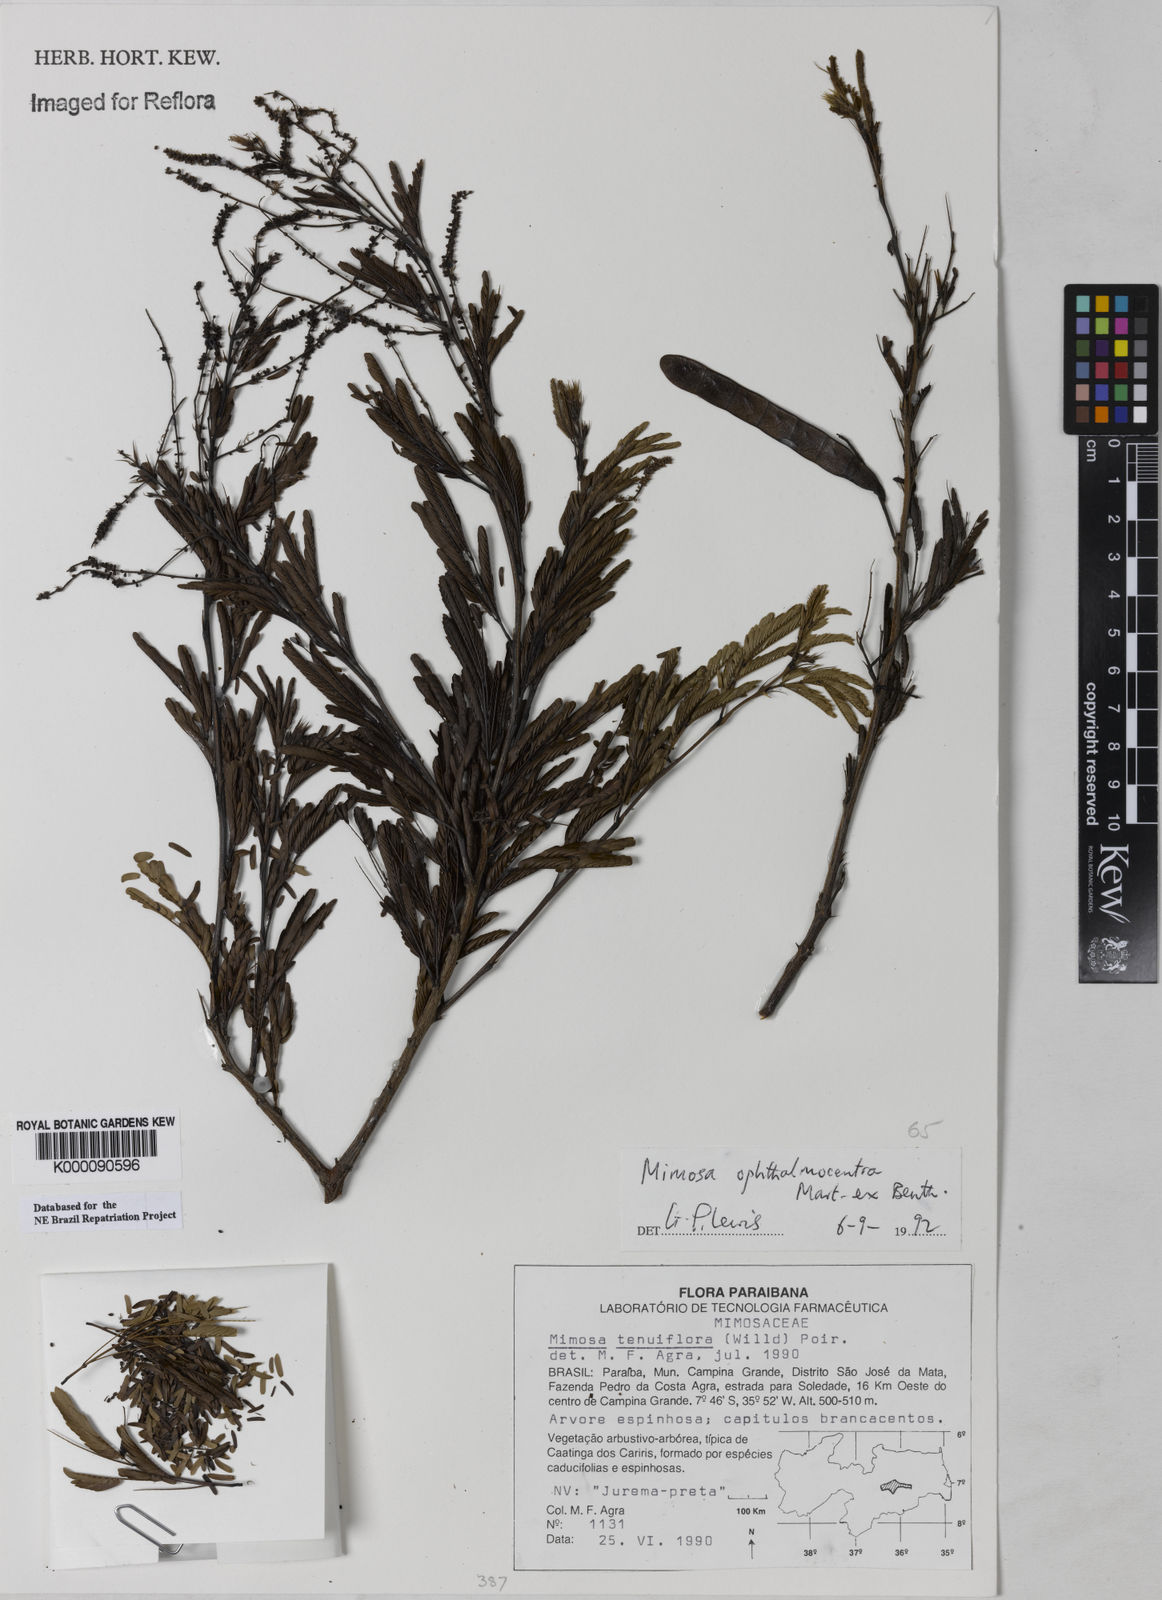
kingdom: Plantae
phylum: Tracheophyta
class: Magnoliopsida
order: Fabales
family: Fabaceae
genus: Mimosa
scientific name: Mimosa
